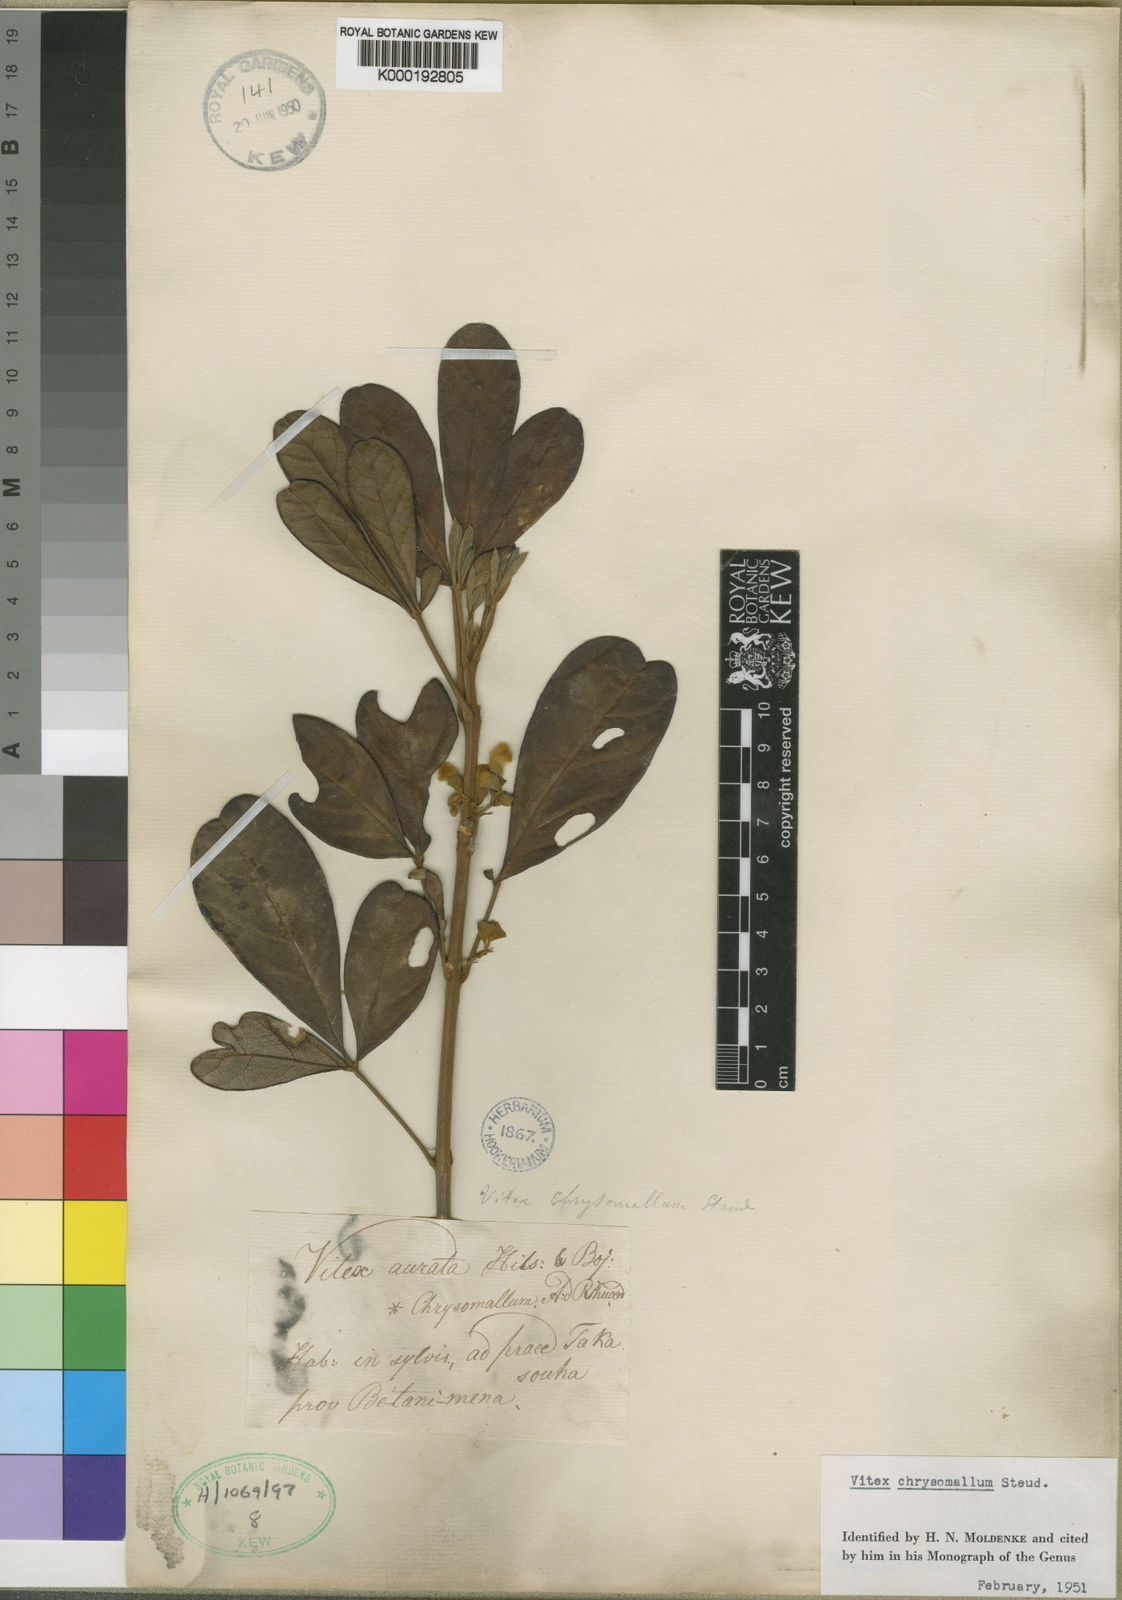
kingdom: Plantae
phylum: Tracheophyta
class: Magnoliopsida
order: Lamiales
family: Lamiaceae
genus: Vitex
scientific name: Vitex chrysomallum
